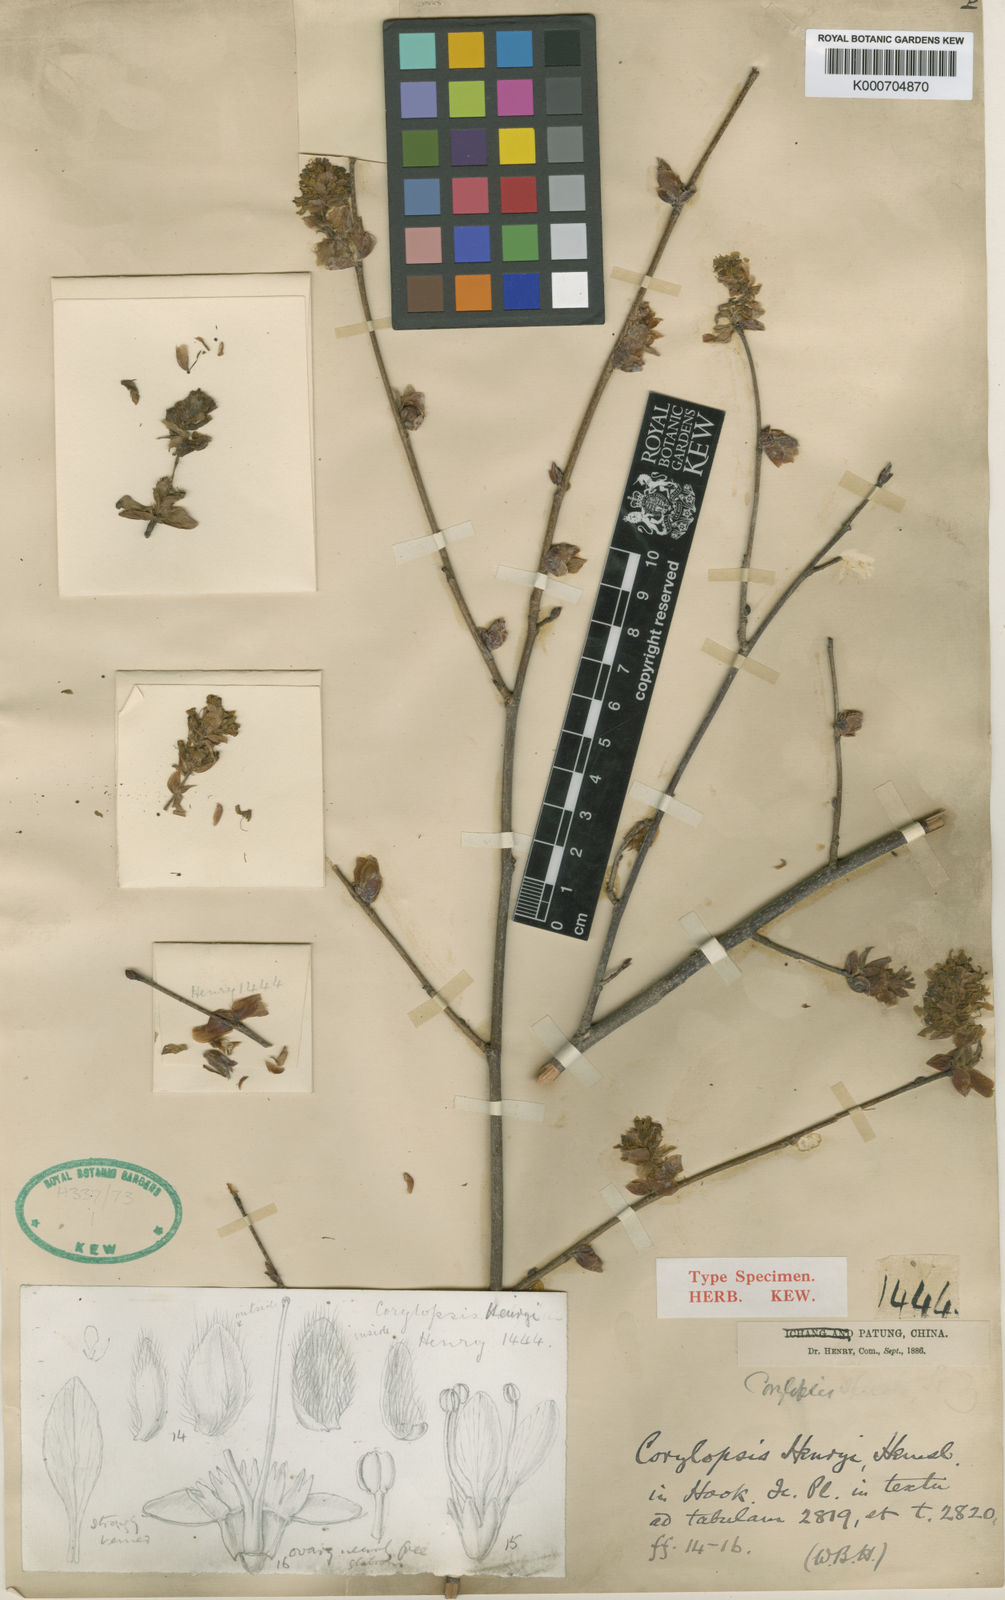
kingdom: Plantae
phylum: Tracheophyta
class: Magnoliopsida
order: Saxifragales
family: Hamamelidaceae
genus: Corylopsis
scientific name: Corylopsis henryi
